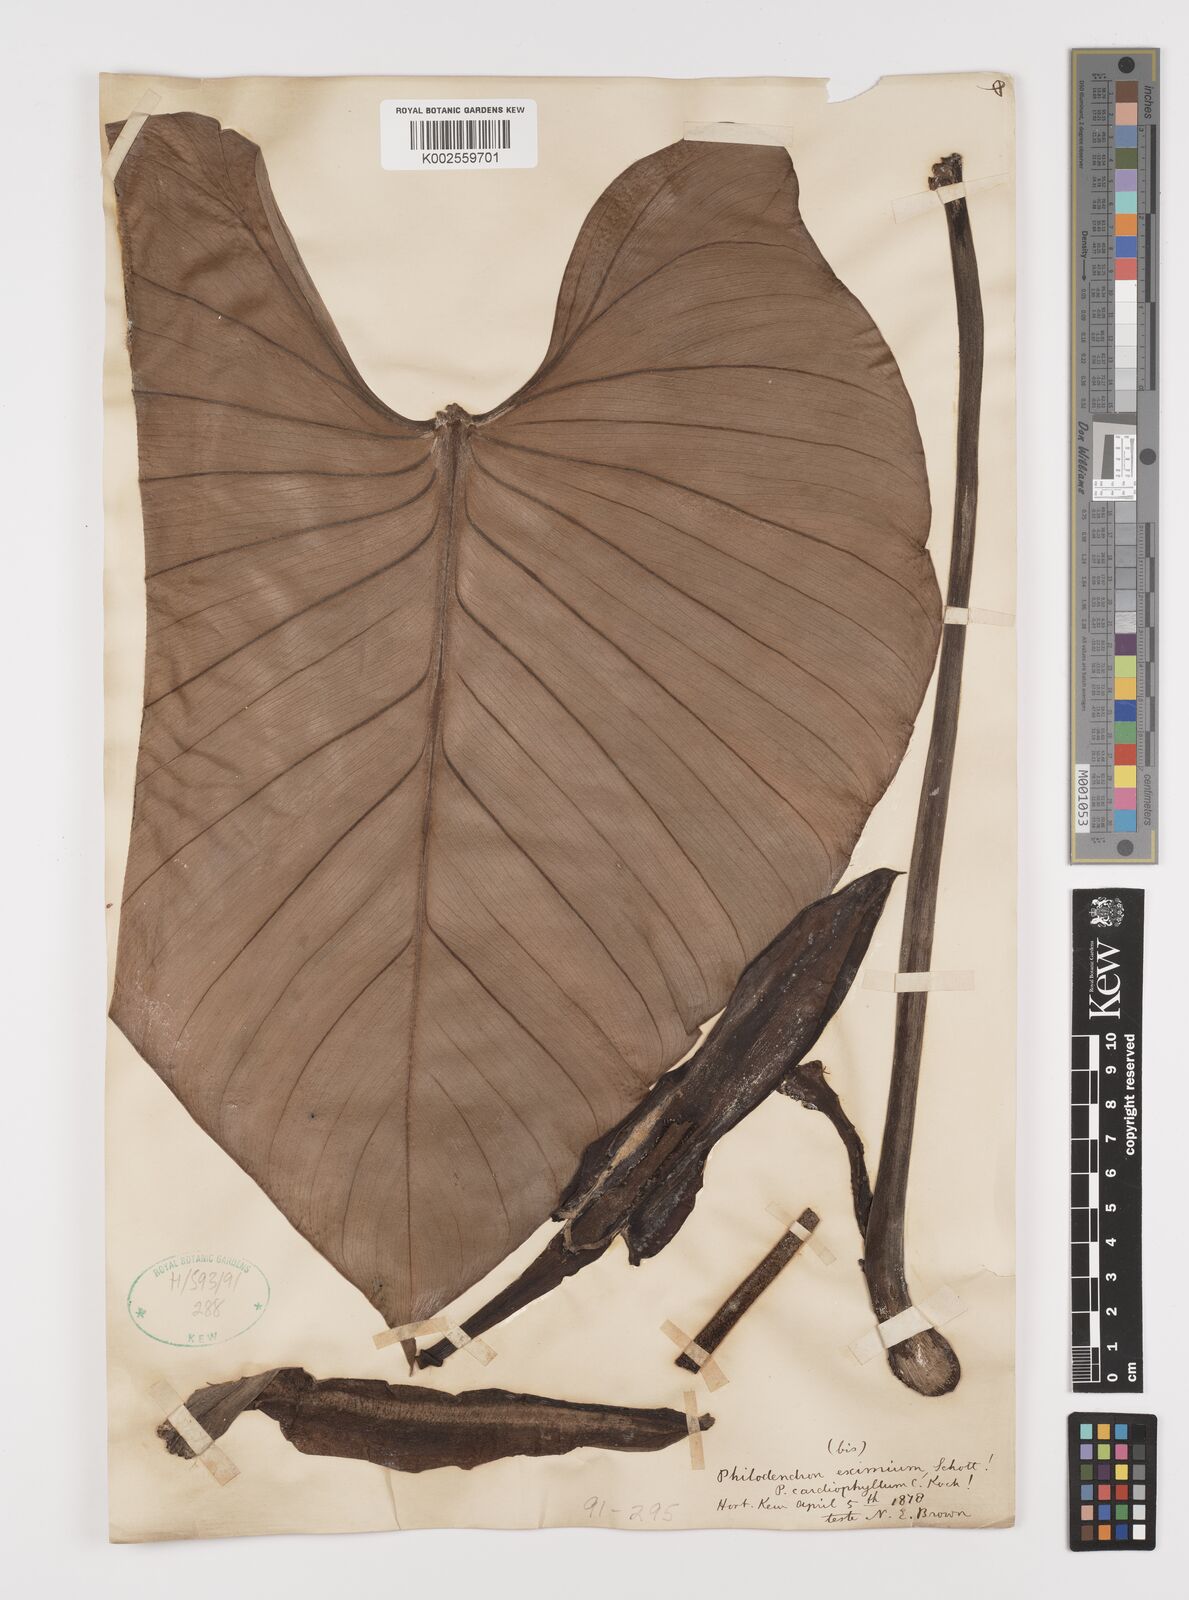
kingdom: Plantae
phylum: Tracheophyta
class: Liliopsida
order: Alismatales
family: Araceae
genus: Philodendron
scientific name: Philodendron eximium
